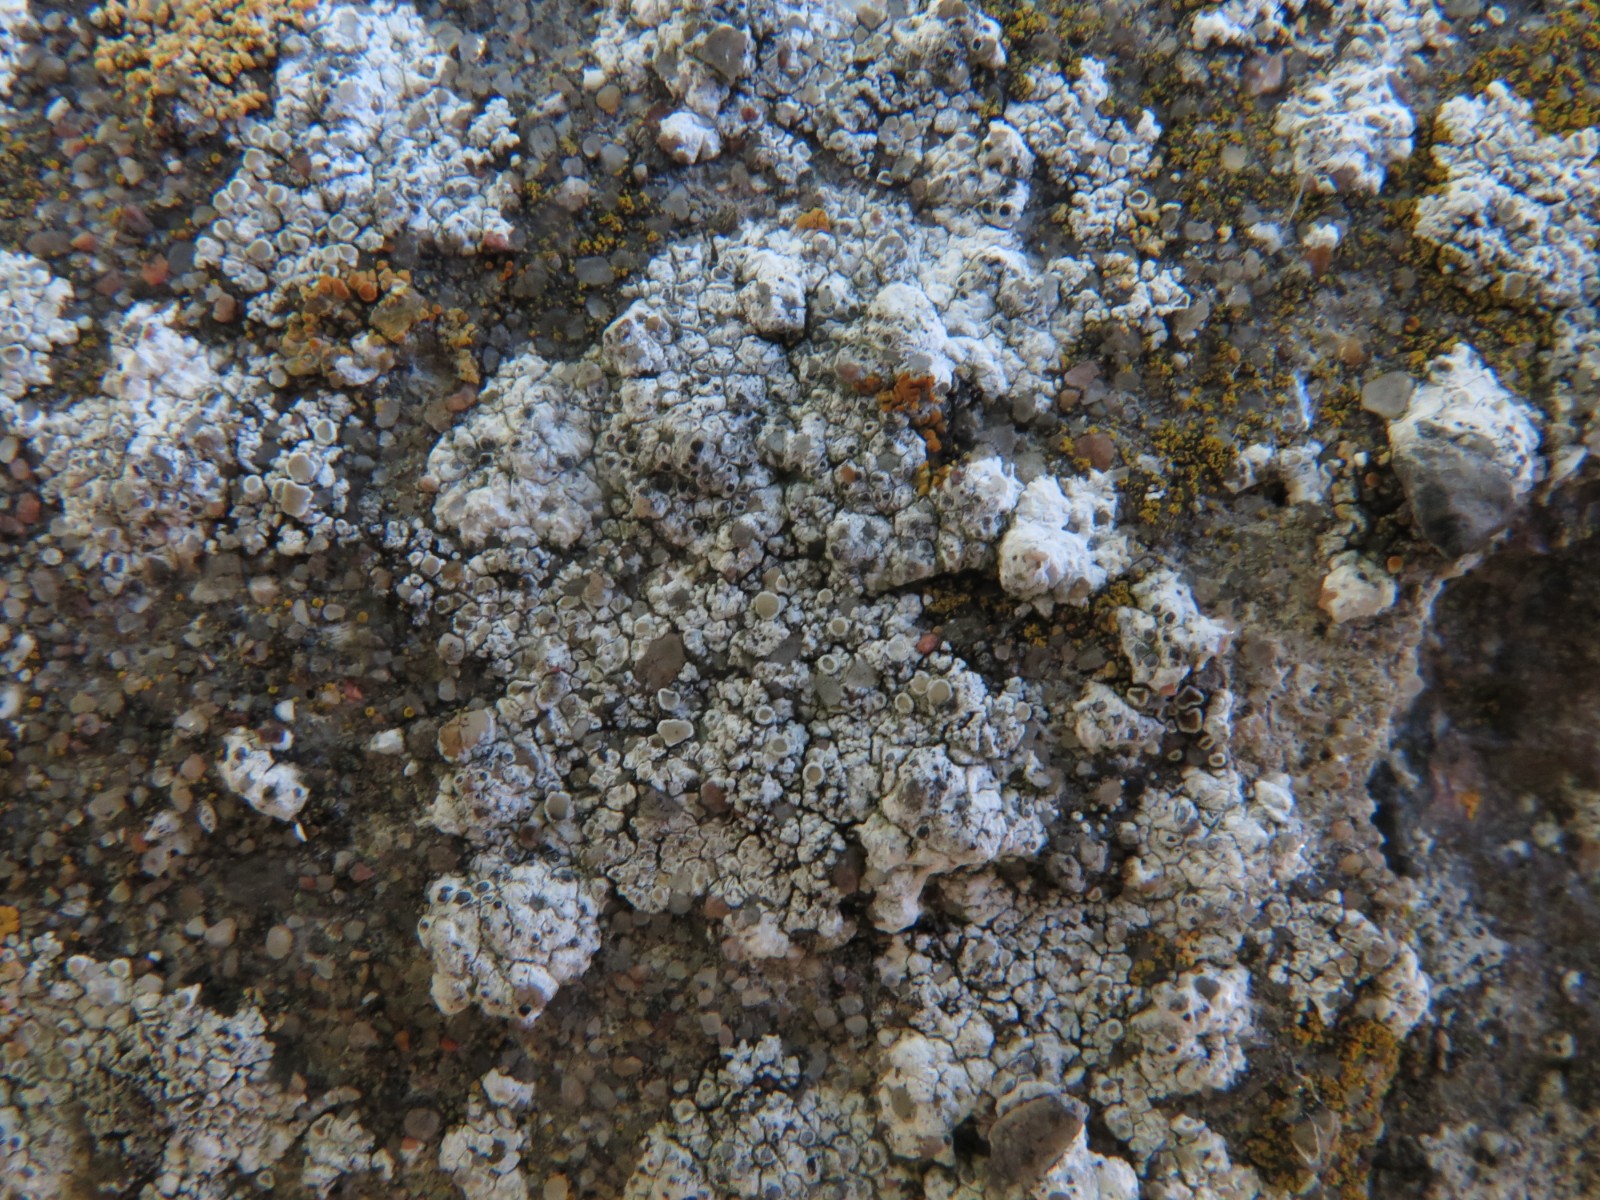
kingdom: Fungi
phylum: Ascomycota
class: Lecanoromycetes
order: Lecanorales
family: Lecanoraceae
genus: Polyozosia
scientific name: Polyozosia albescens
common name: cement-kantskivelav
